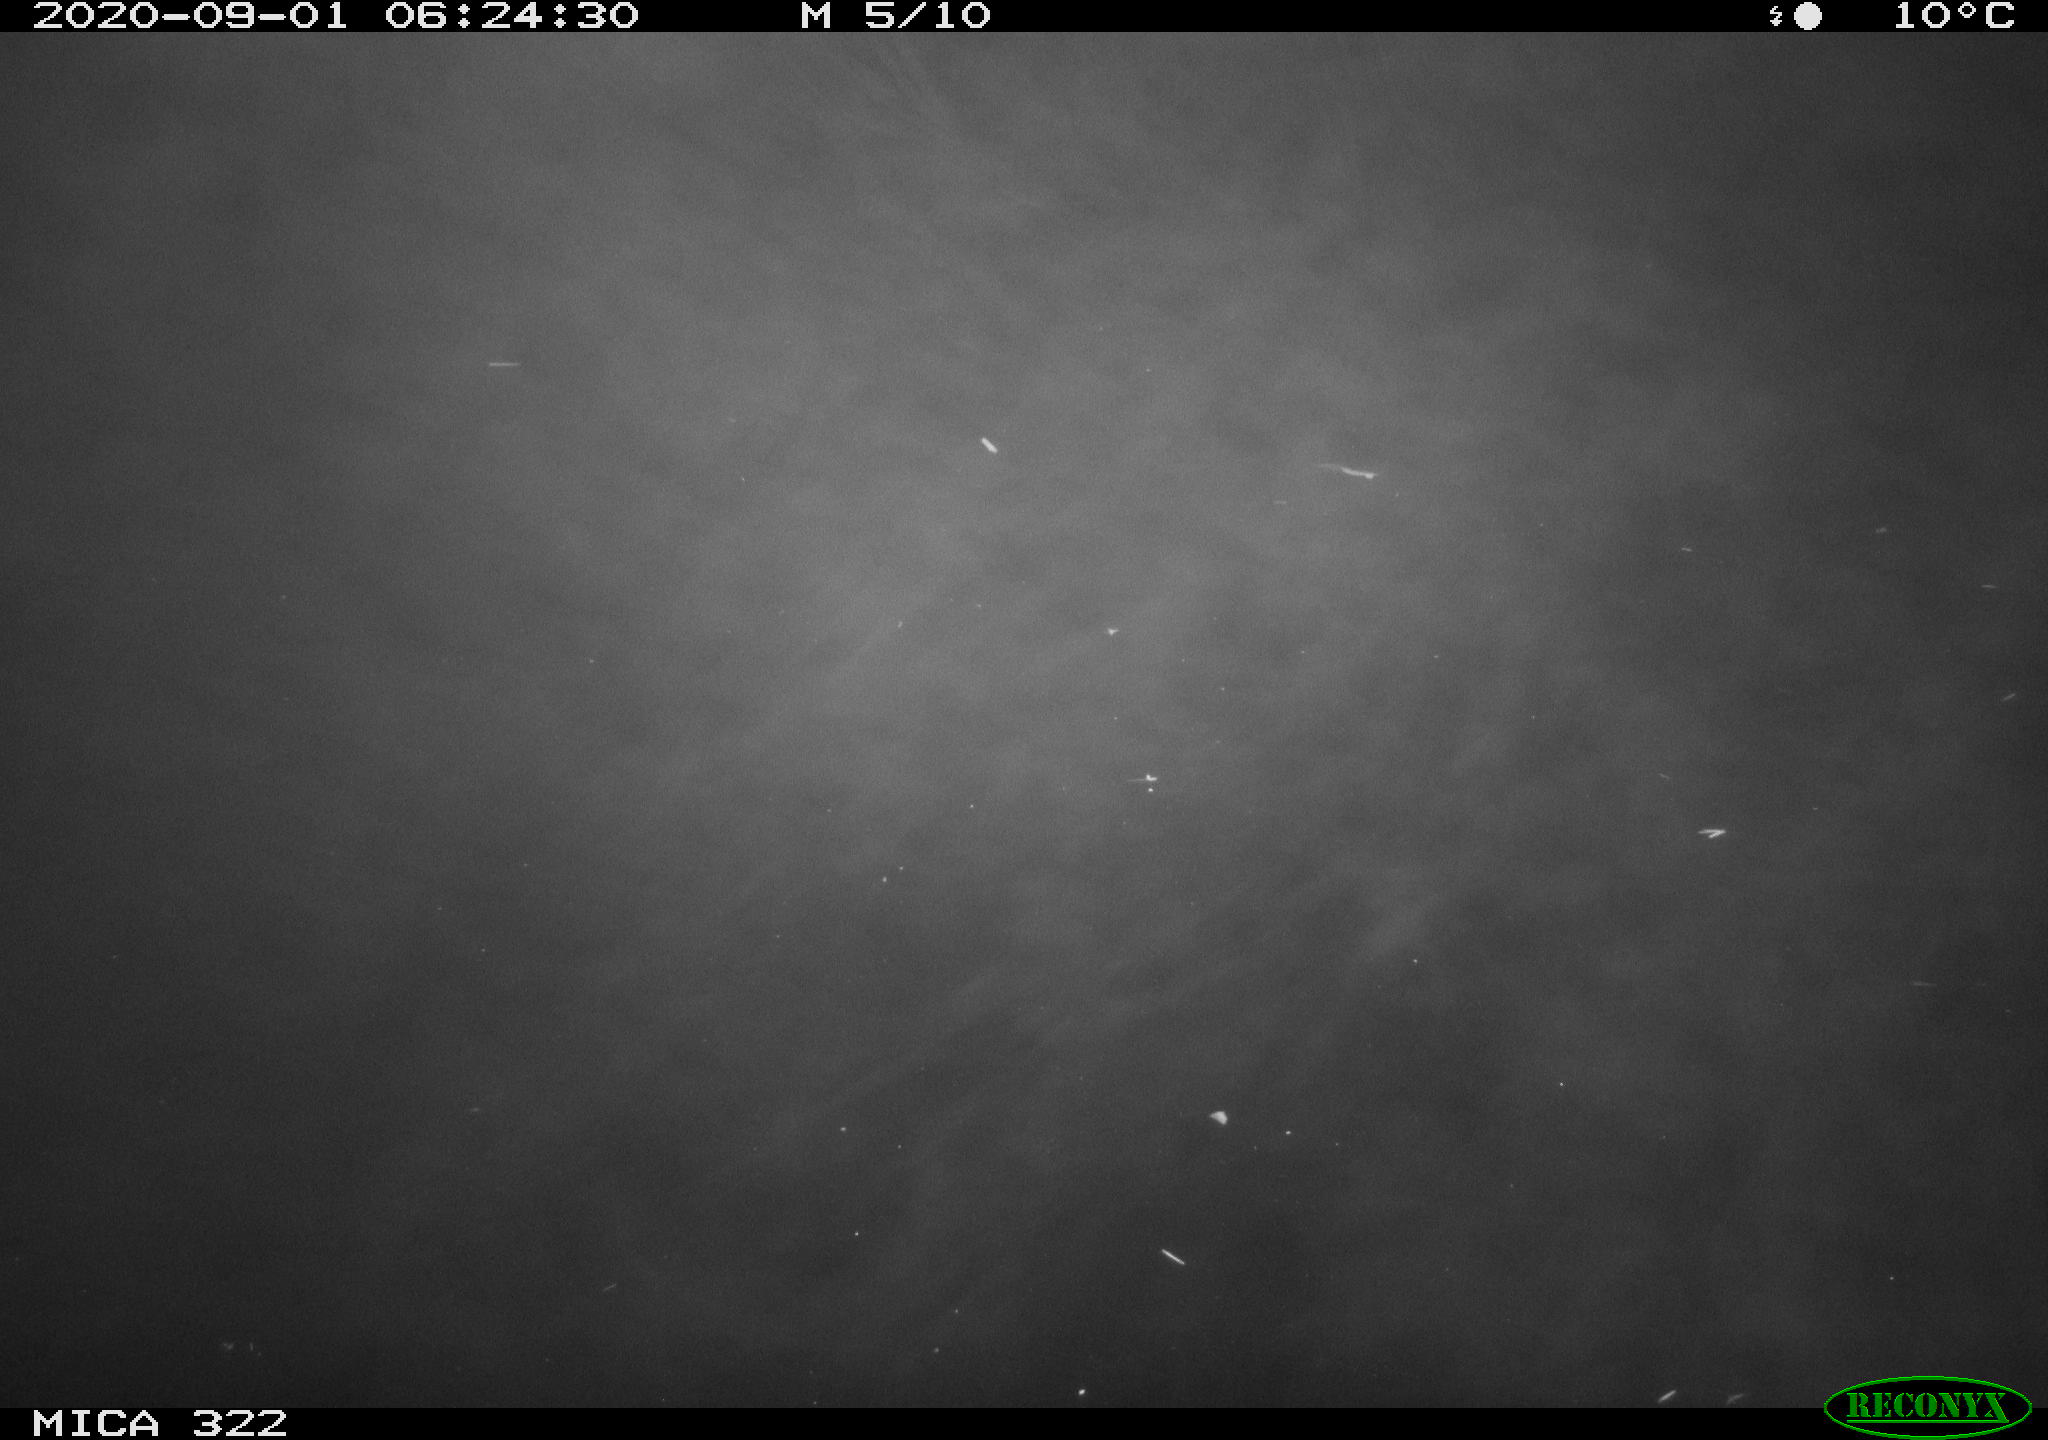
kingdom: Animalia
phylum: Chordata
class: Mammalia
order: Rodentia
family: Muridae
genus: Rattus
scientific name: Rattus norvegicus
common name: Brown rat
